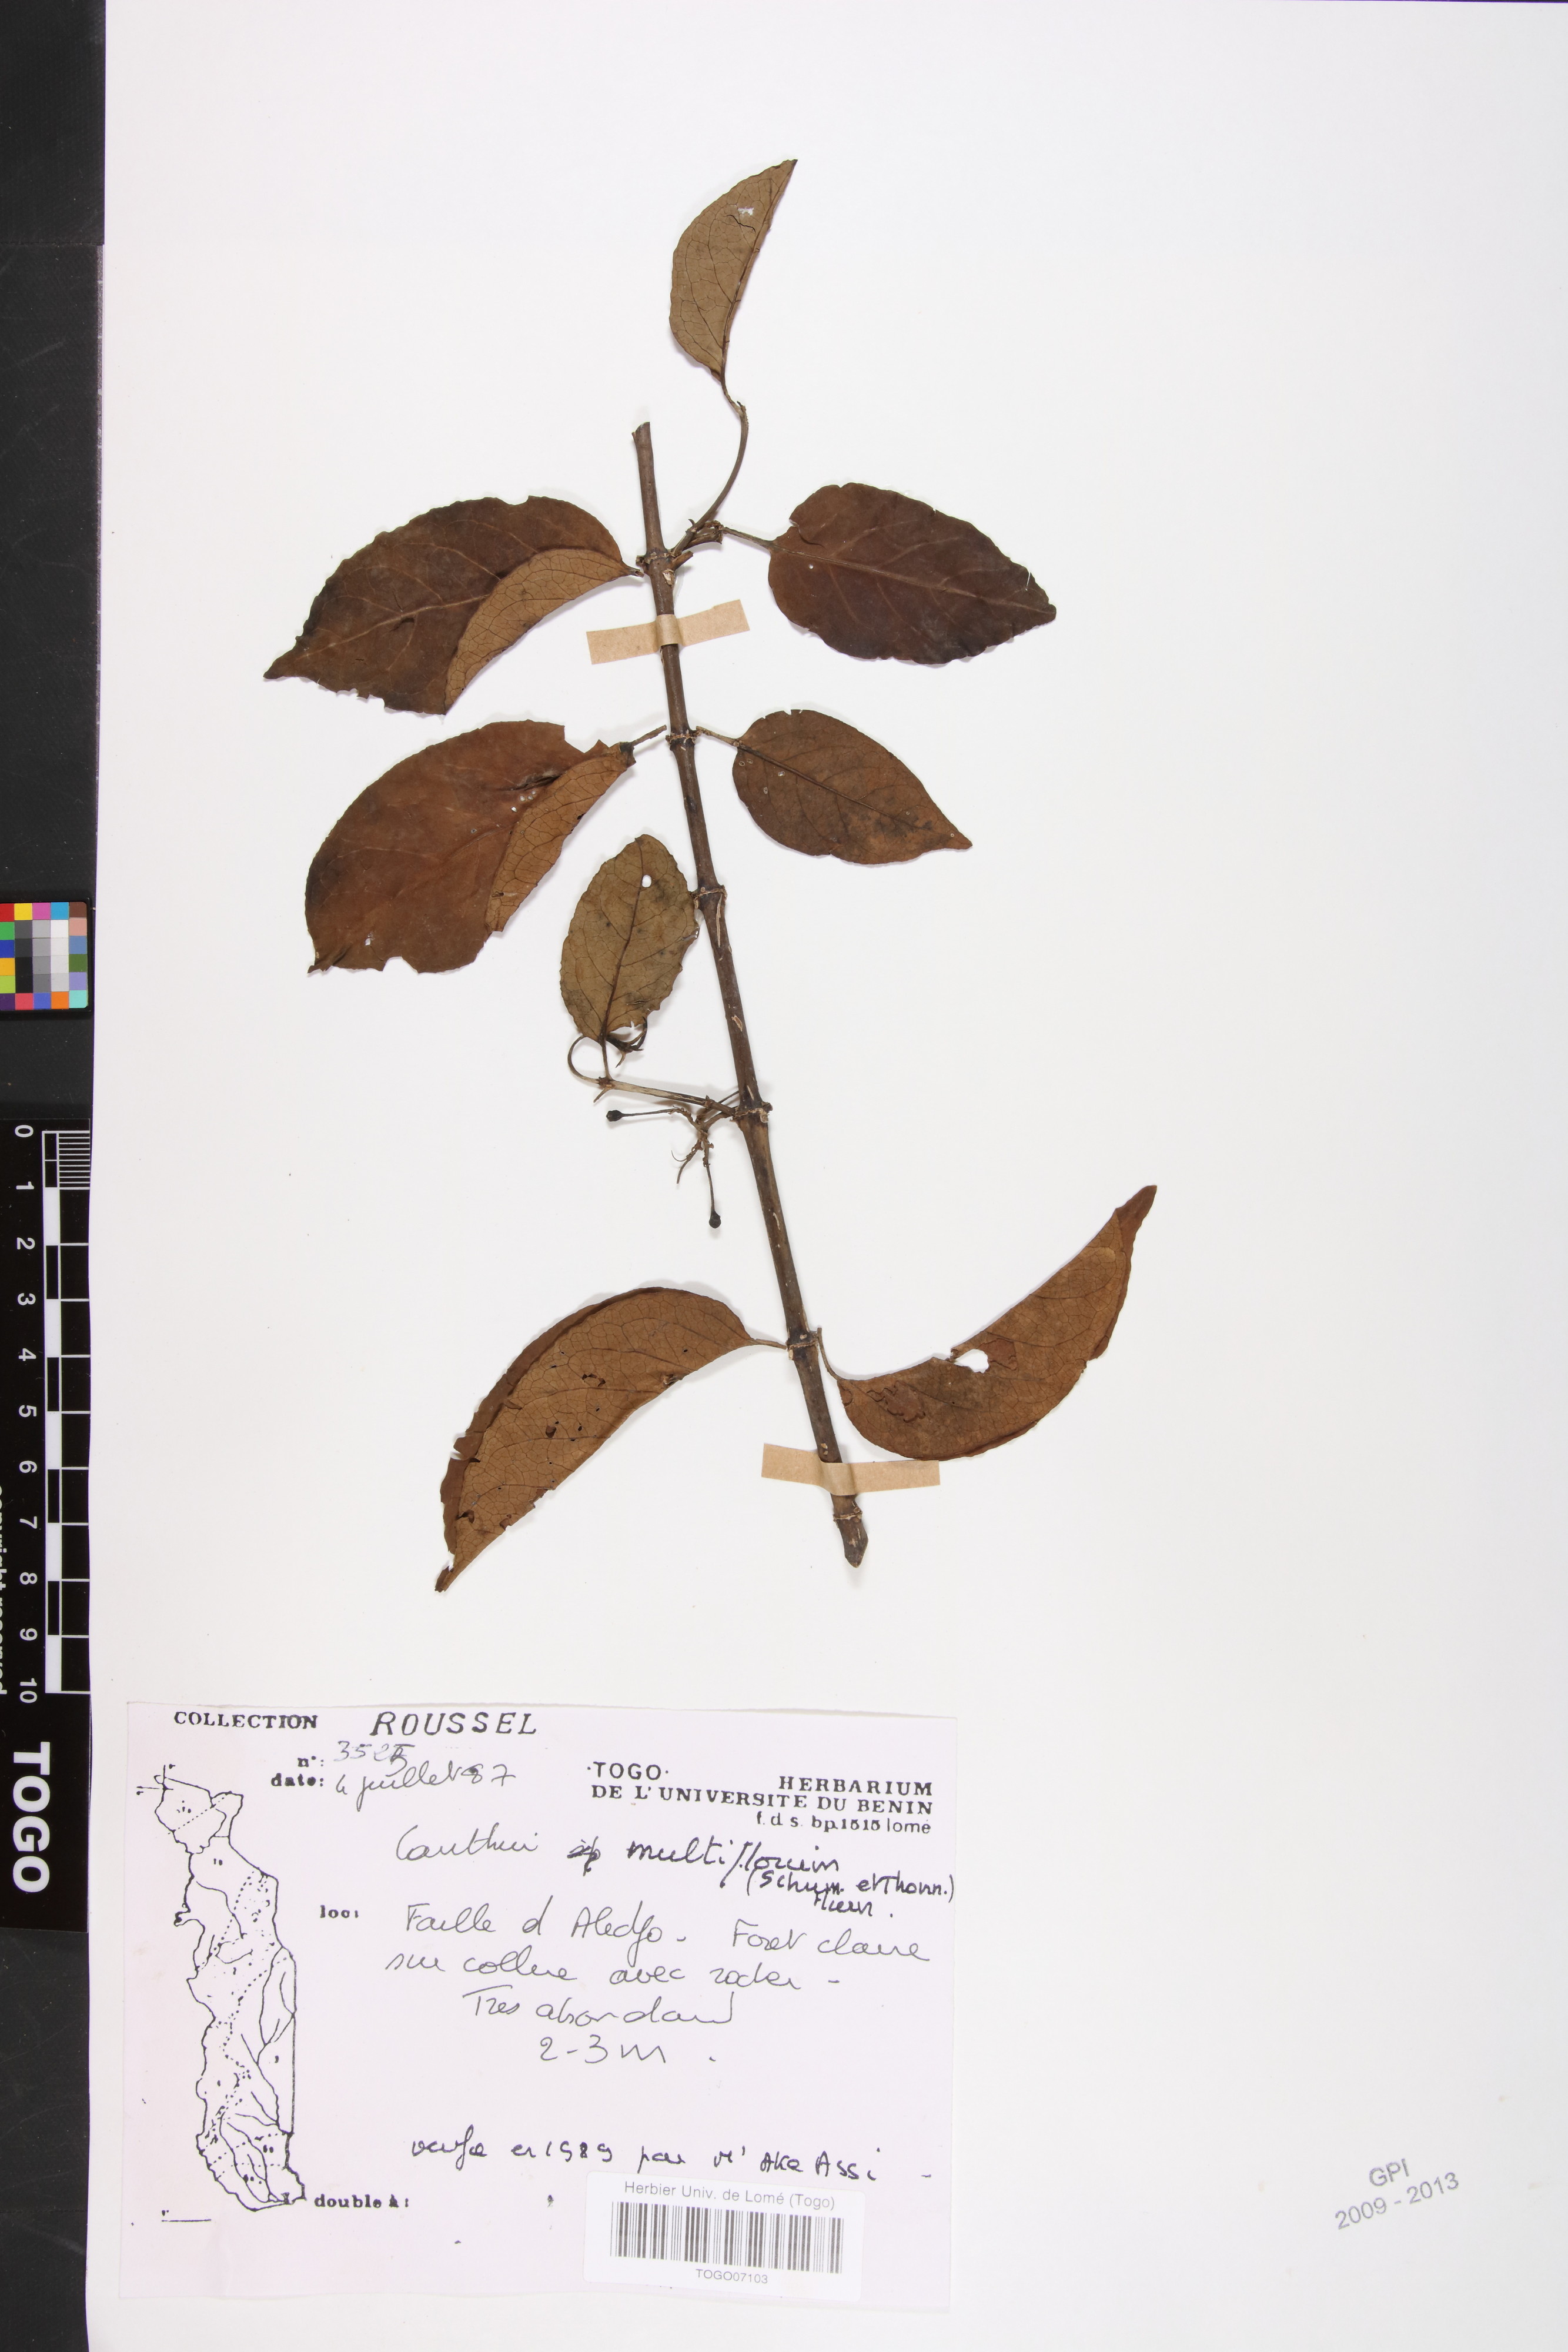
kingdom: Plantae
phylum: Tracheophyta
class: Magnoliopsida
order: Gentianales
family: Rubiaceae
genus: Breonadia
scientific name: Breonadia salicina
